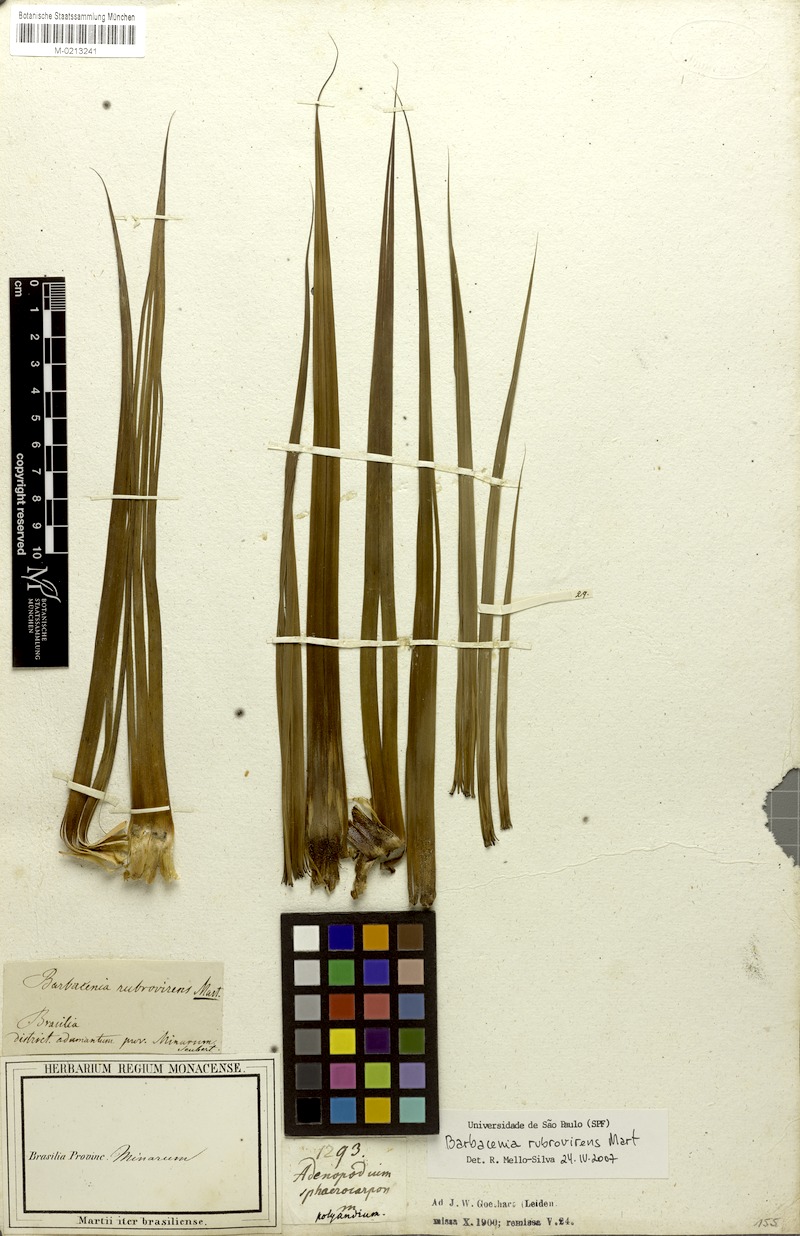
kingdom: Plantae
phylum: Tracheophyta
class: Liliopsida
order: Pandanales
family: Velloziaceae
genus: Barbacenia
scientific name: Barbacenia rubrovirens
